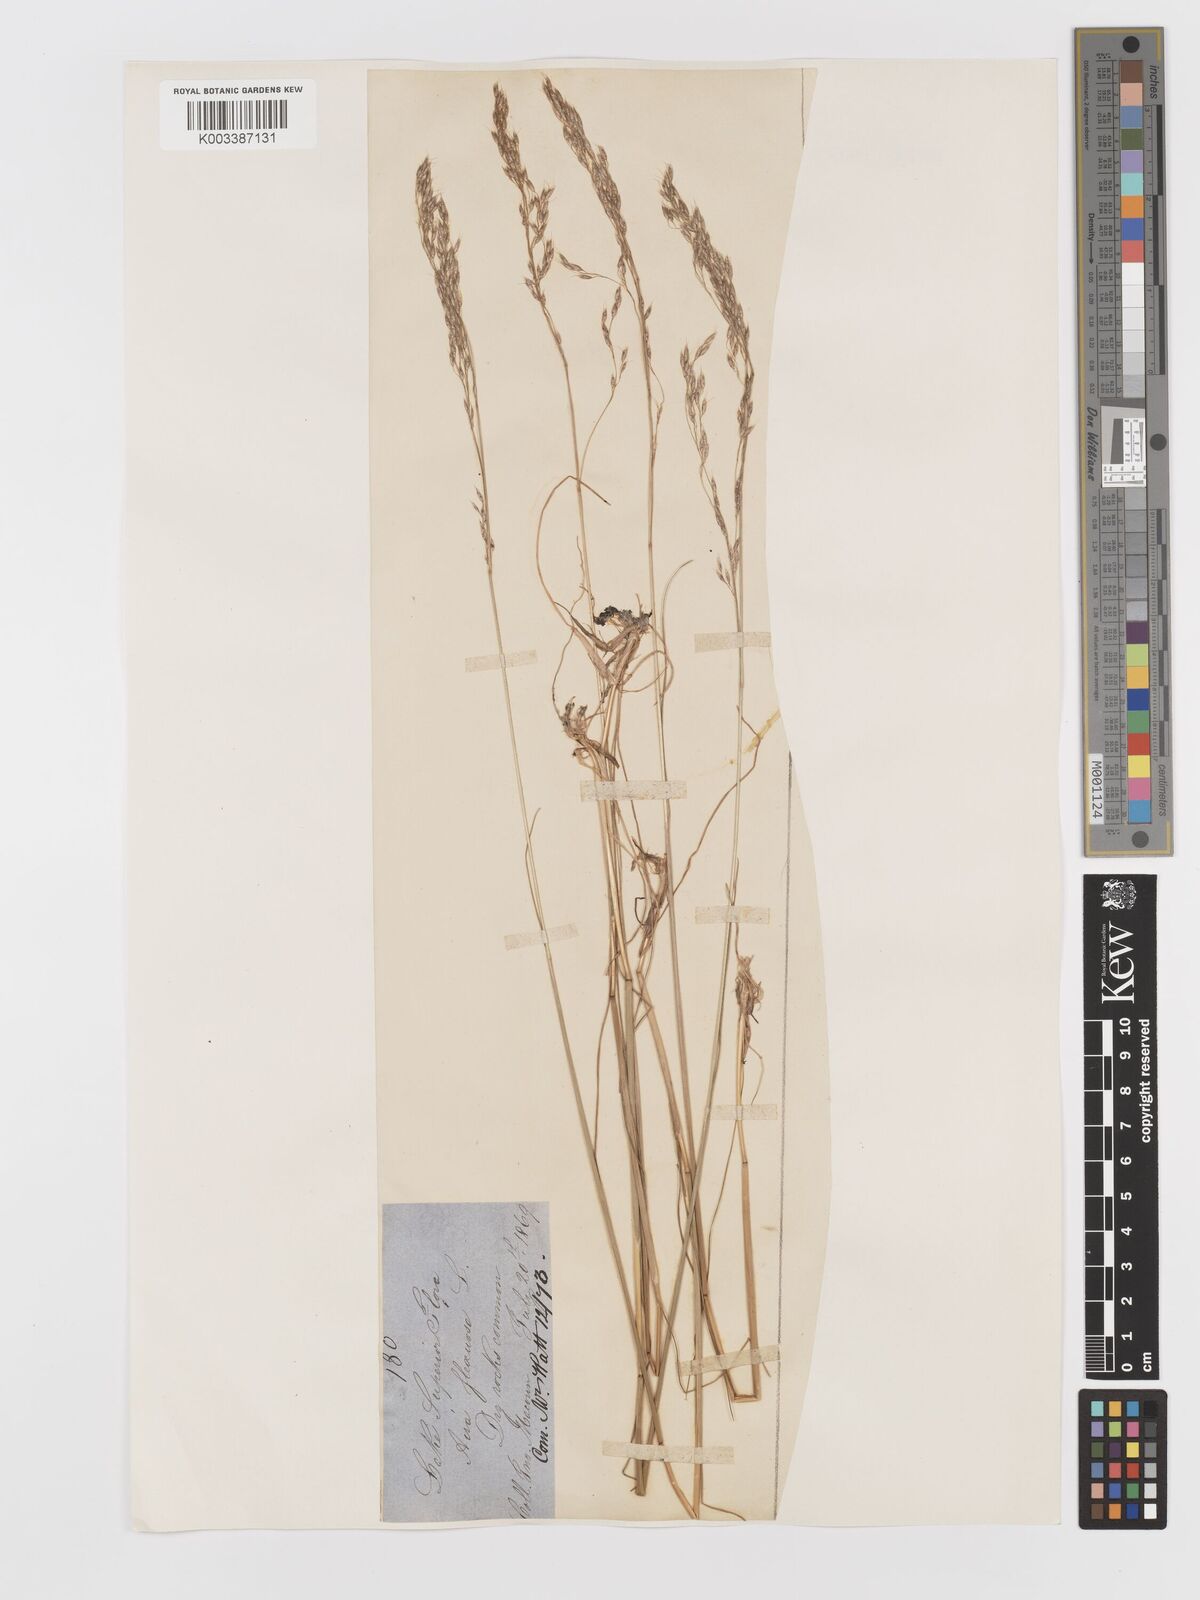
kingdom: Plantae
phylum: Tracheophyta
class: Liliopsida
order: Poales
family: Poaceae
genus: Avenella
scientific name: Avenella flexuosa
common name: Wavy hairgrass
